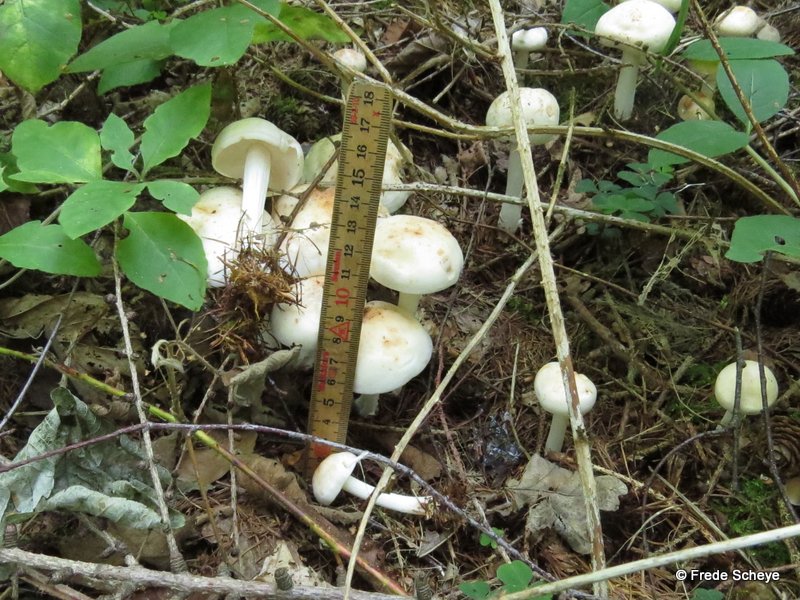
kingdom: Fungi
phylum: Basidiomycota
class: Agaricomycetes
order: Agaricales
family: Omphalotaceae
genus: Rhodocollybia
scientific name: Rhodocollybia maculata
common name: plettet fladhat
